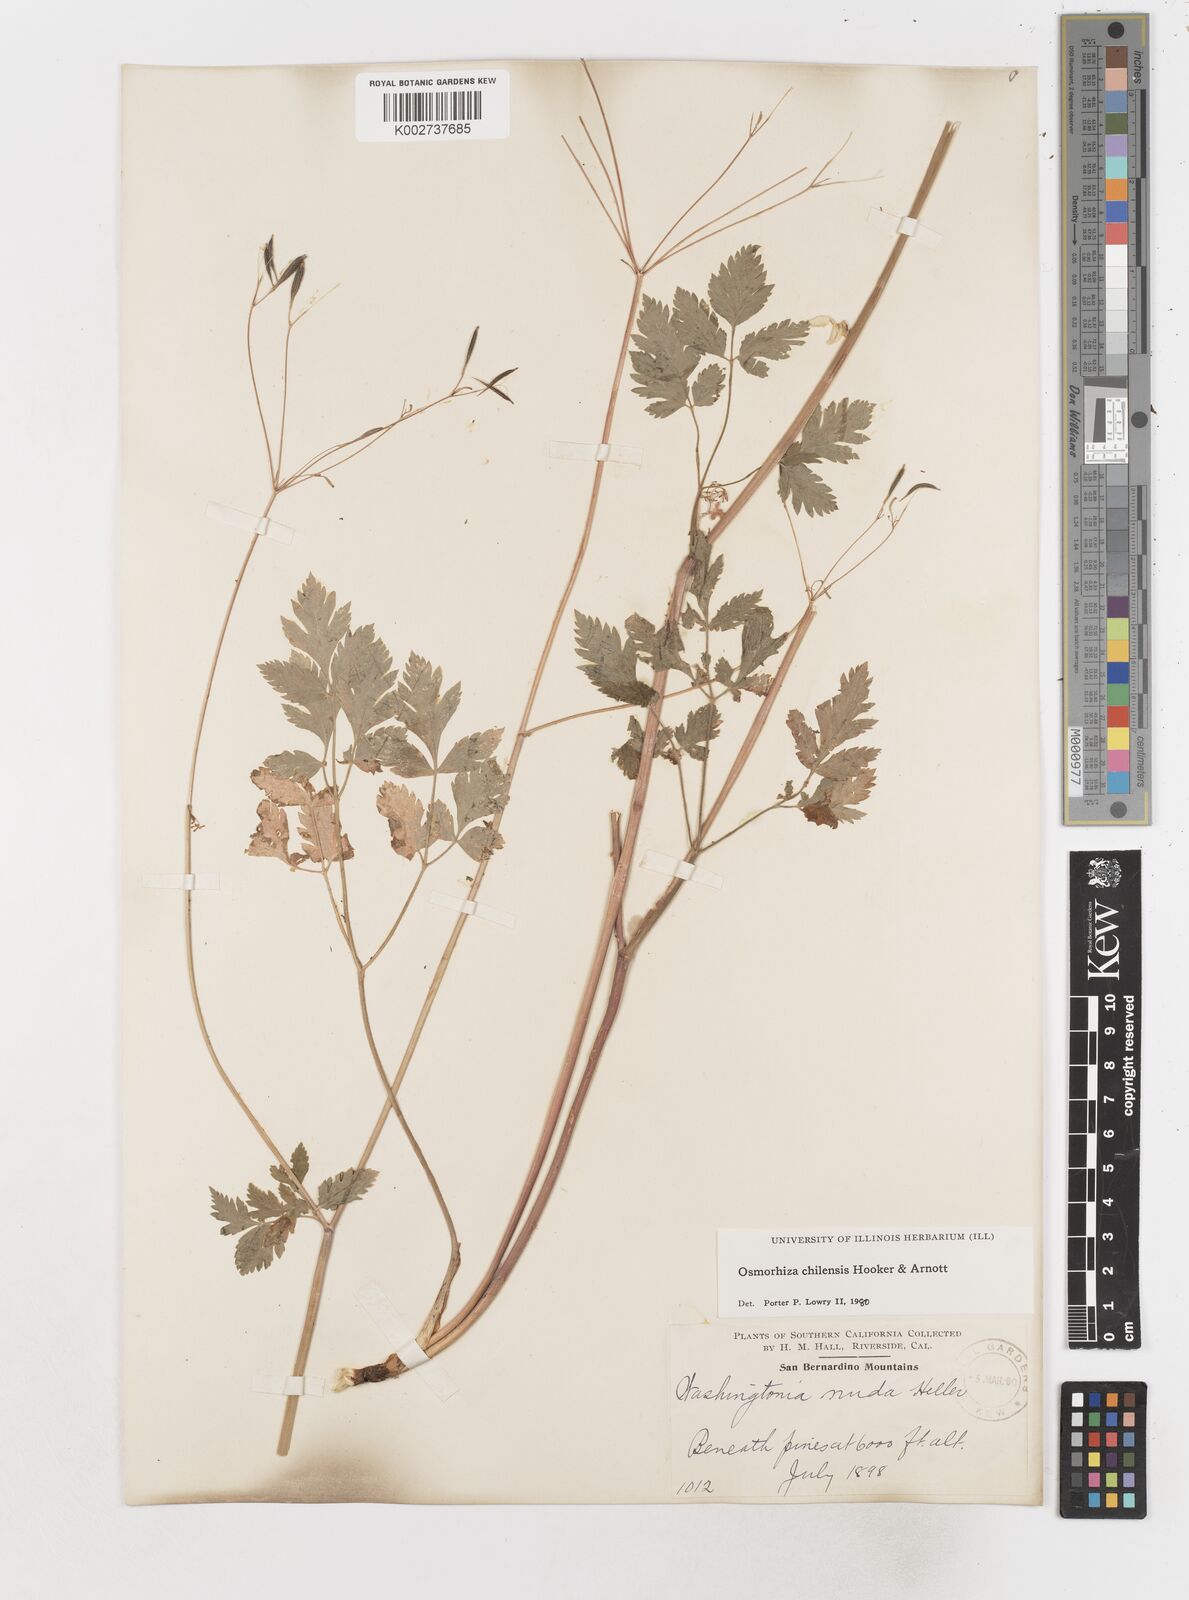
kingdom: Plantae
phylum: Tracheophyta
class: Magnoliopsida
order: Apiales
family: Apiaceae
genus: Osmorhiza
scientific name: Osmorhiza berteroi
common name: Mountain sweet cicely
